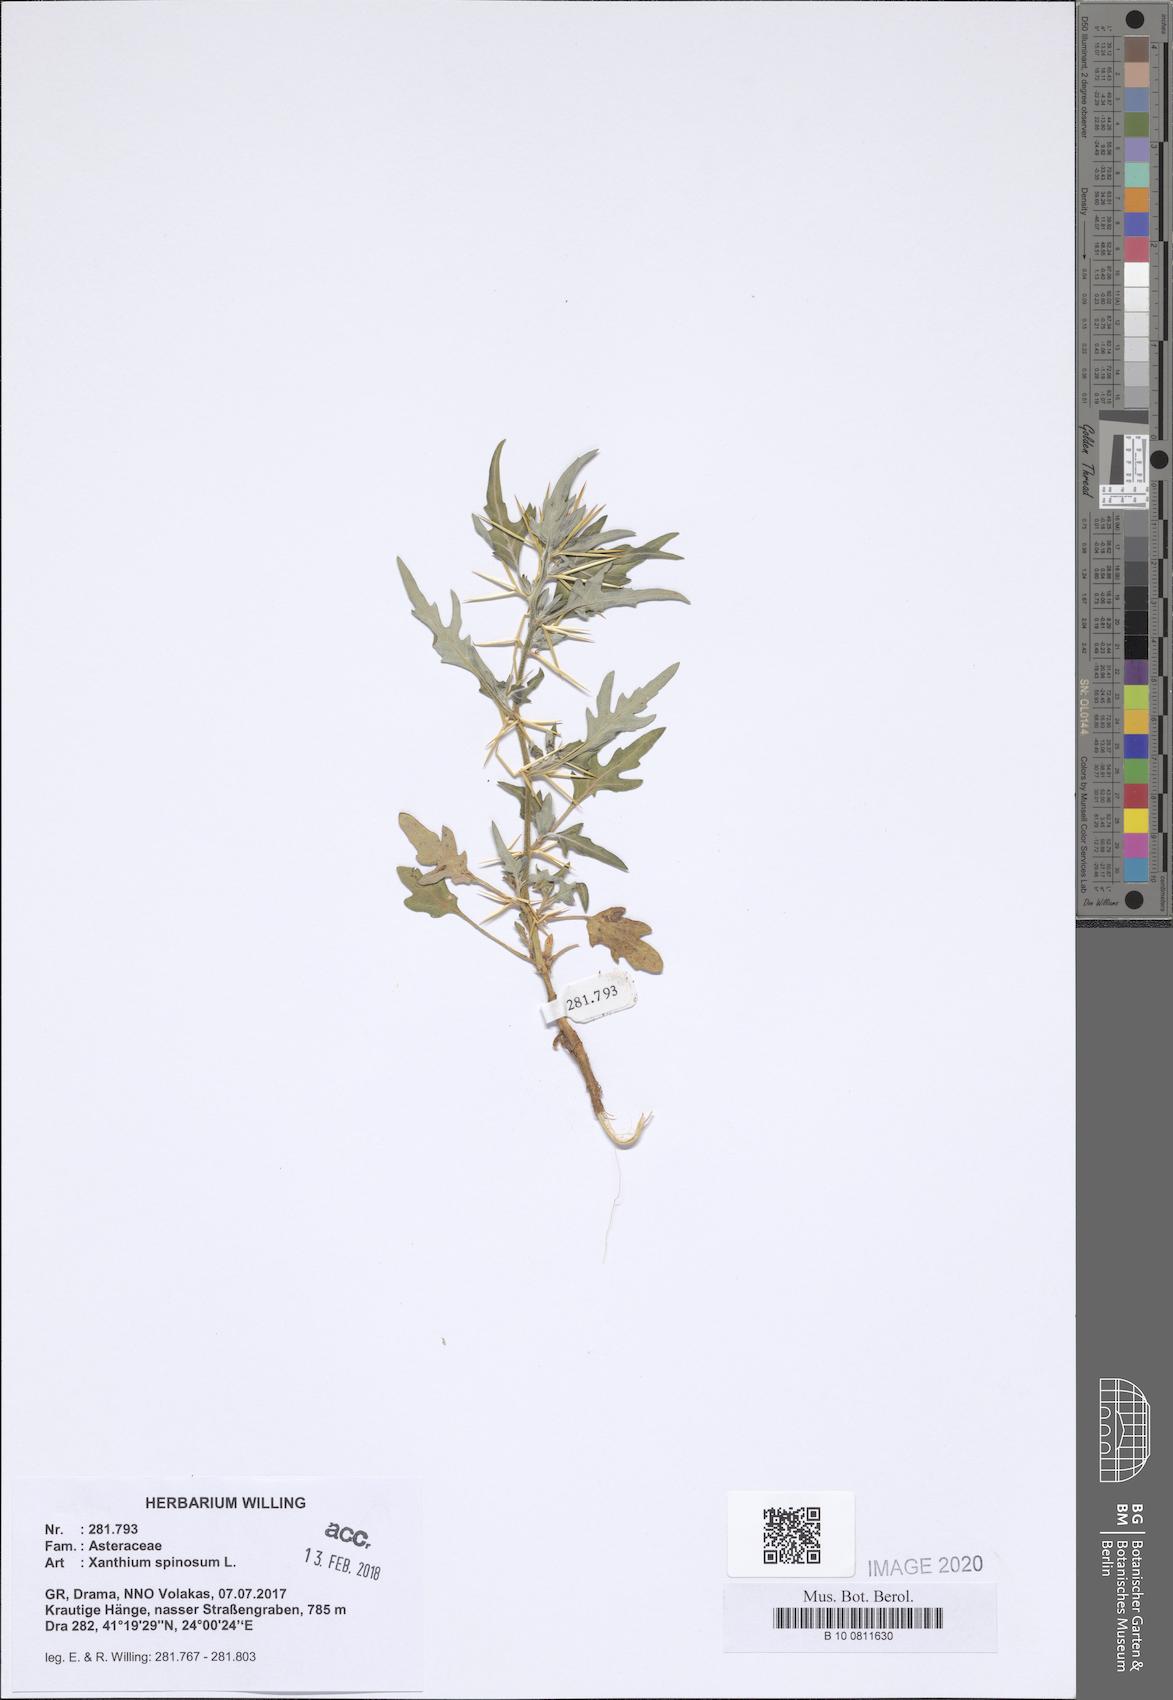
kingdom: Plantae
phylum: Tracheophyta
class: Magnoliopsida
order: Asterales
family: Asteraceae
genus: Xanthium
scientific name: Xanthium spinosum
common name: Spiny cocklebur
